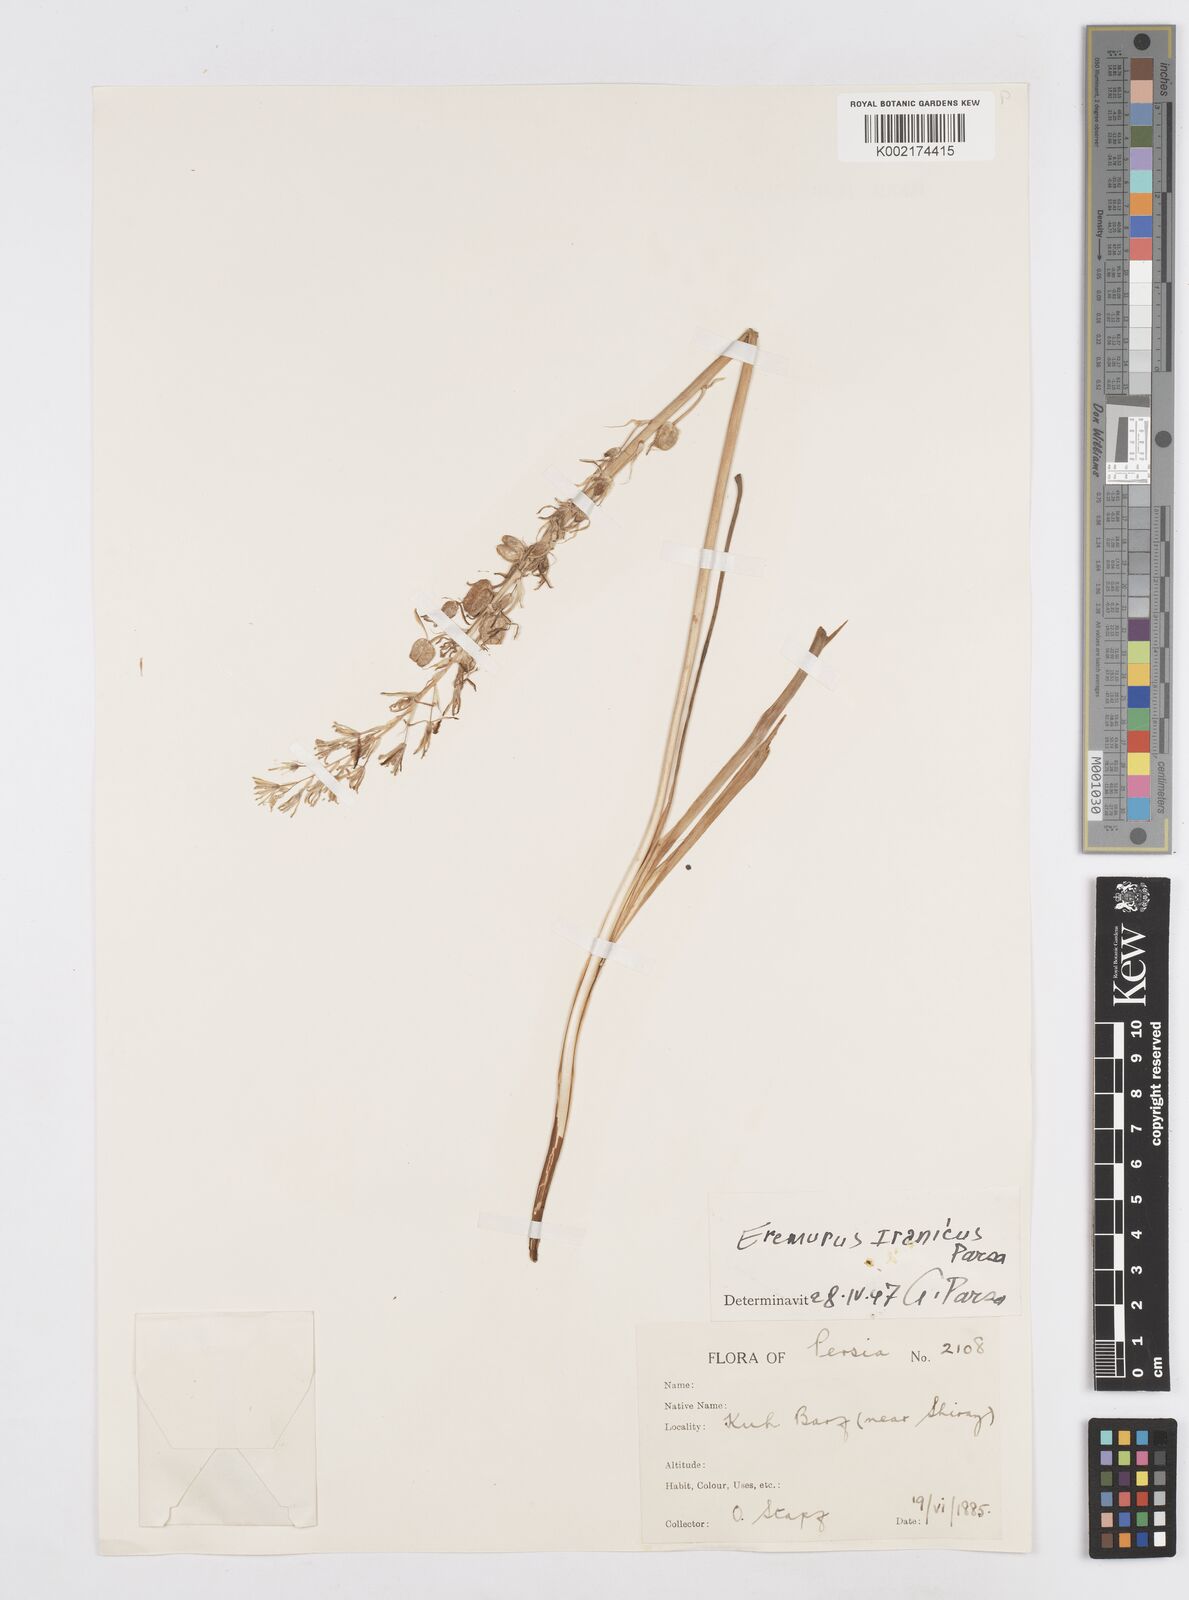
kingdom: Plantae
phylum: Tracheophyta
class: Liliopsida
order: Asparagales
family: Asparagaceae
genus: Ornithogalum
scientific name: Ornithogalum narbonense
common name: Bath-asparagus
